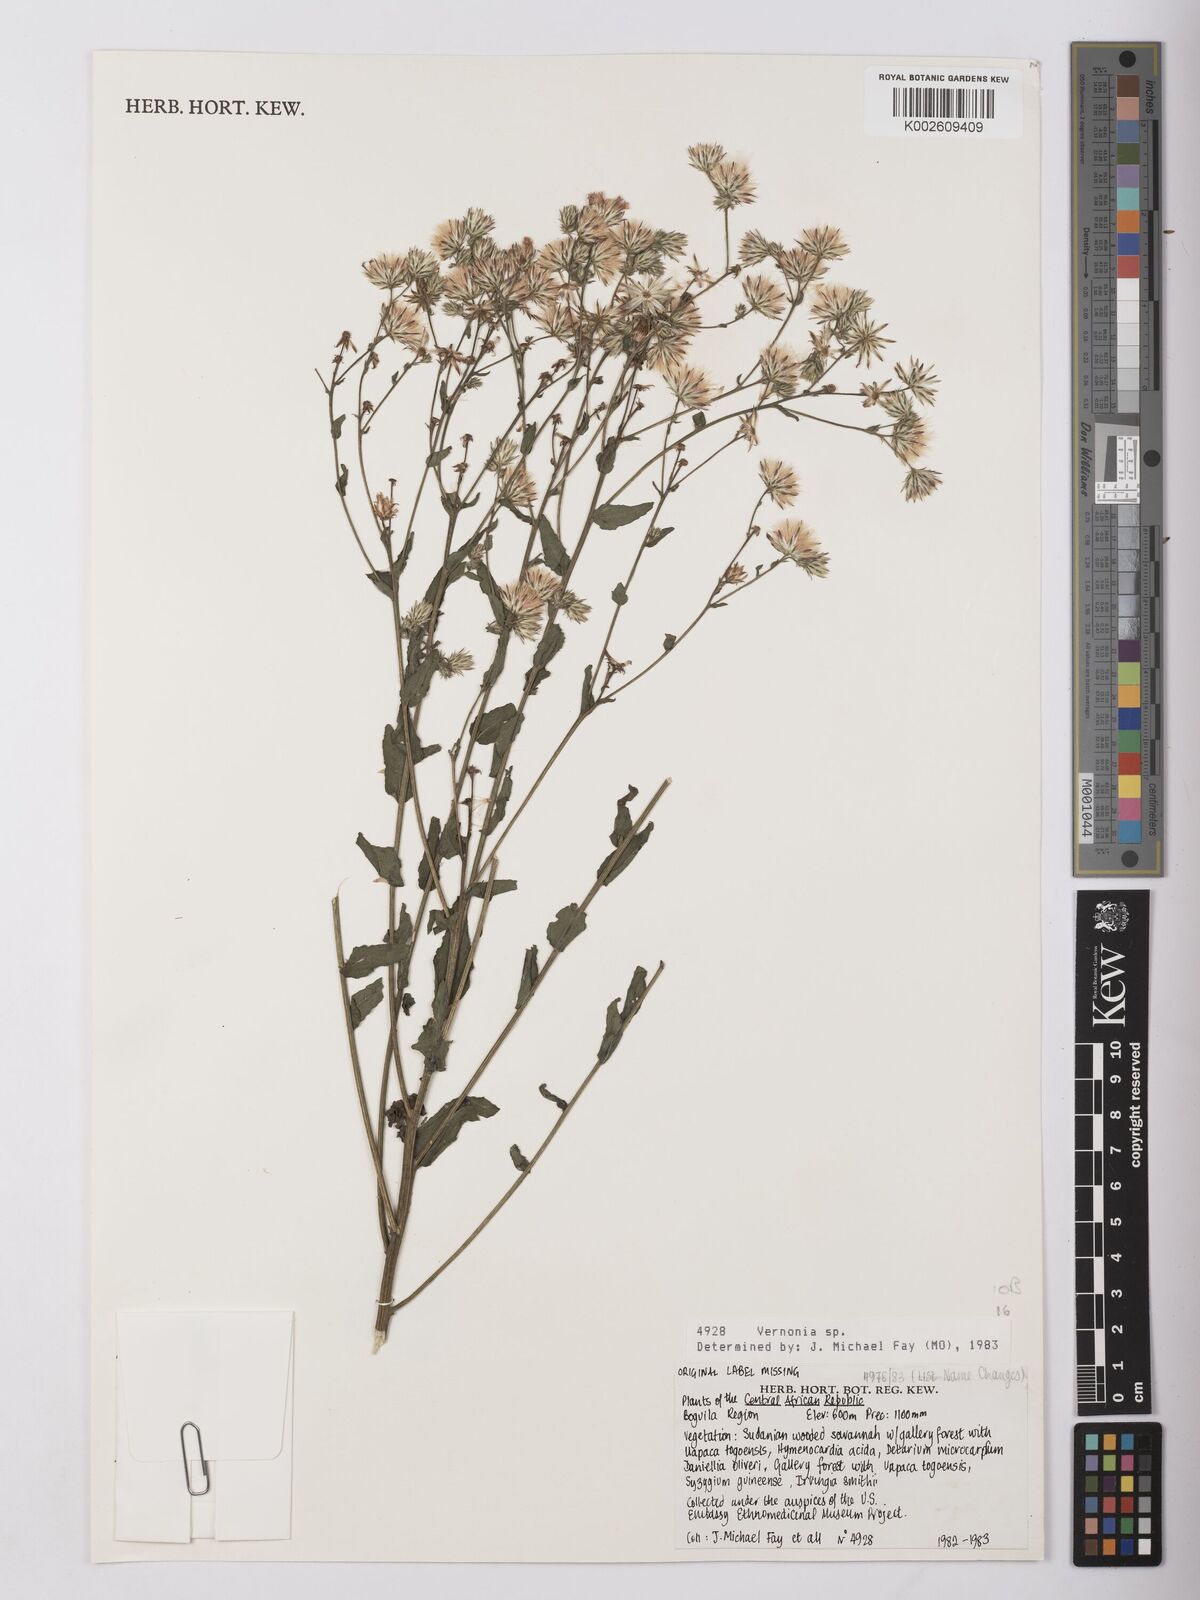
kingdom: Plantae
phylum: Tracheophyta
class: Magnoliopsida
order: Asterales
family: Asteraceae
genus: Vernonia
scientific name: Vernonia
